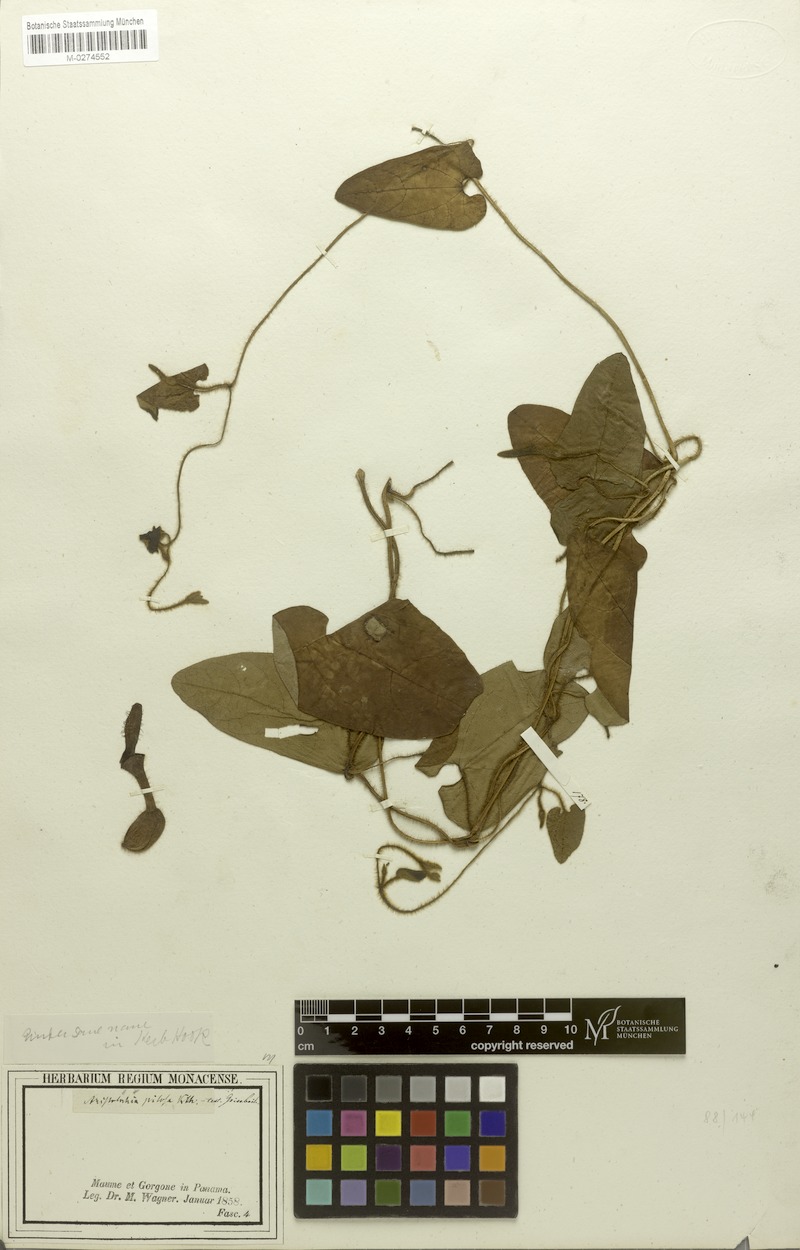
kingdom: Plantae
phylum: Tracheophyta
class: Magnoliopsida
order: Piperales
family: Aristolochiaceae
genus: Aristolochia
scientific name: Aristolochia pilosa
